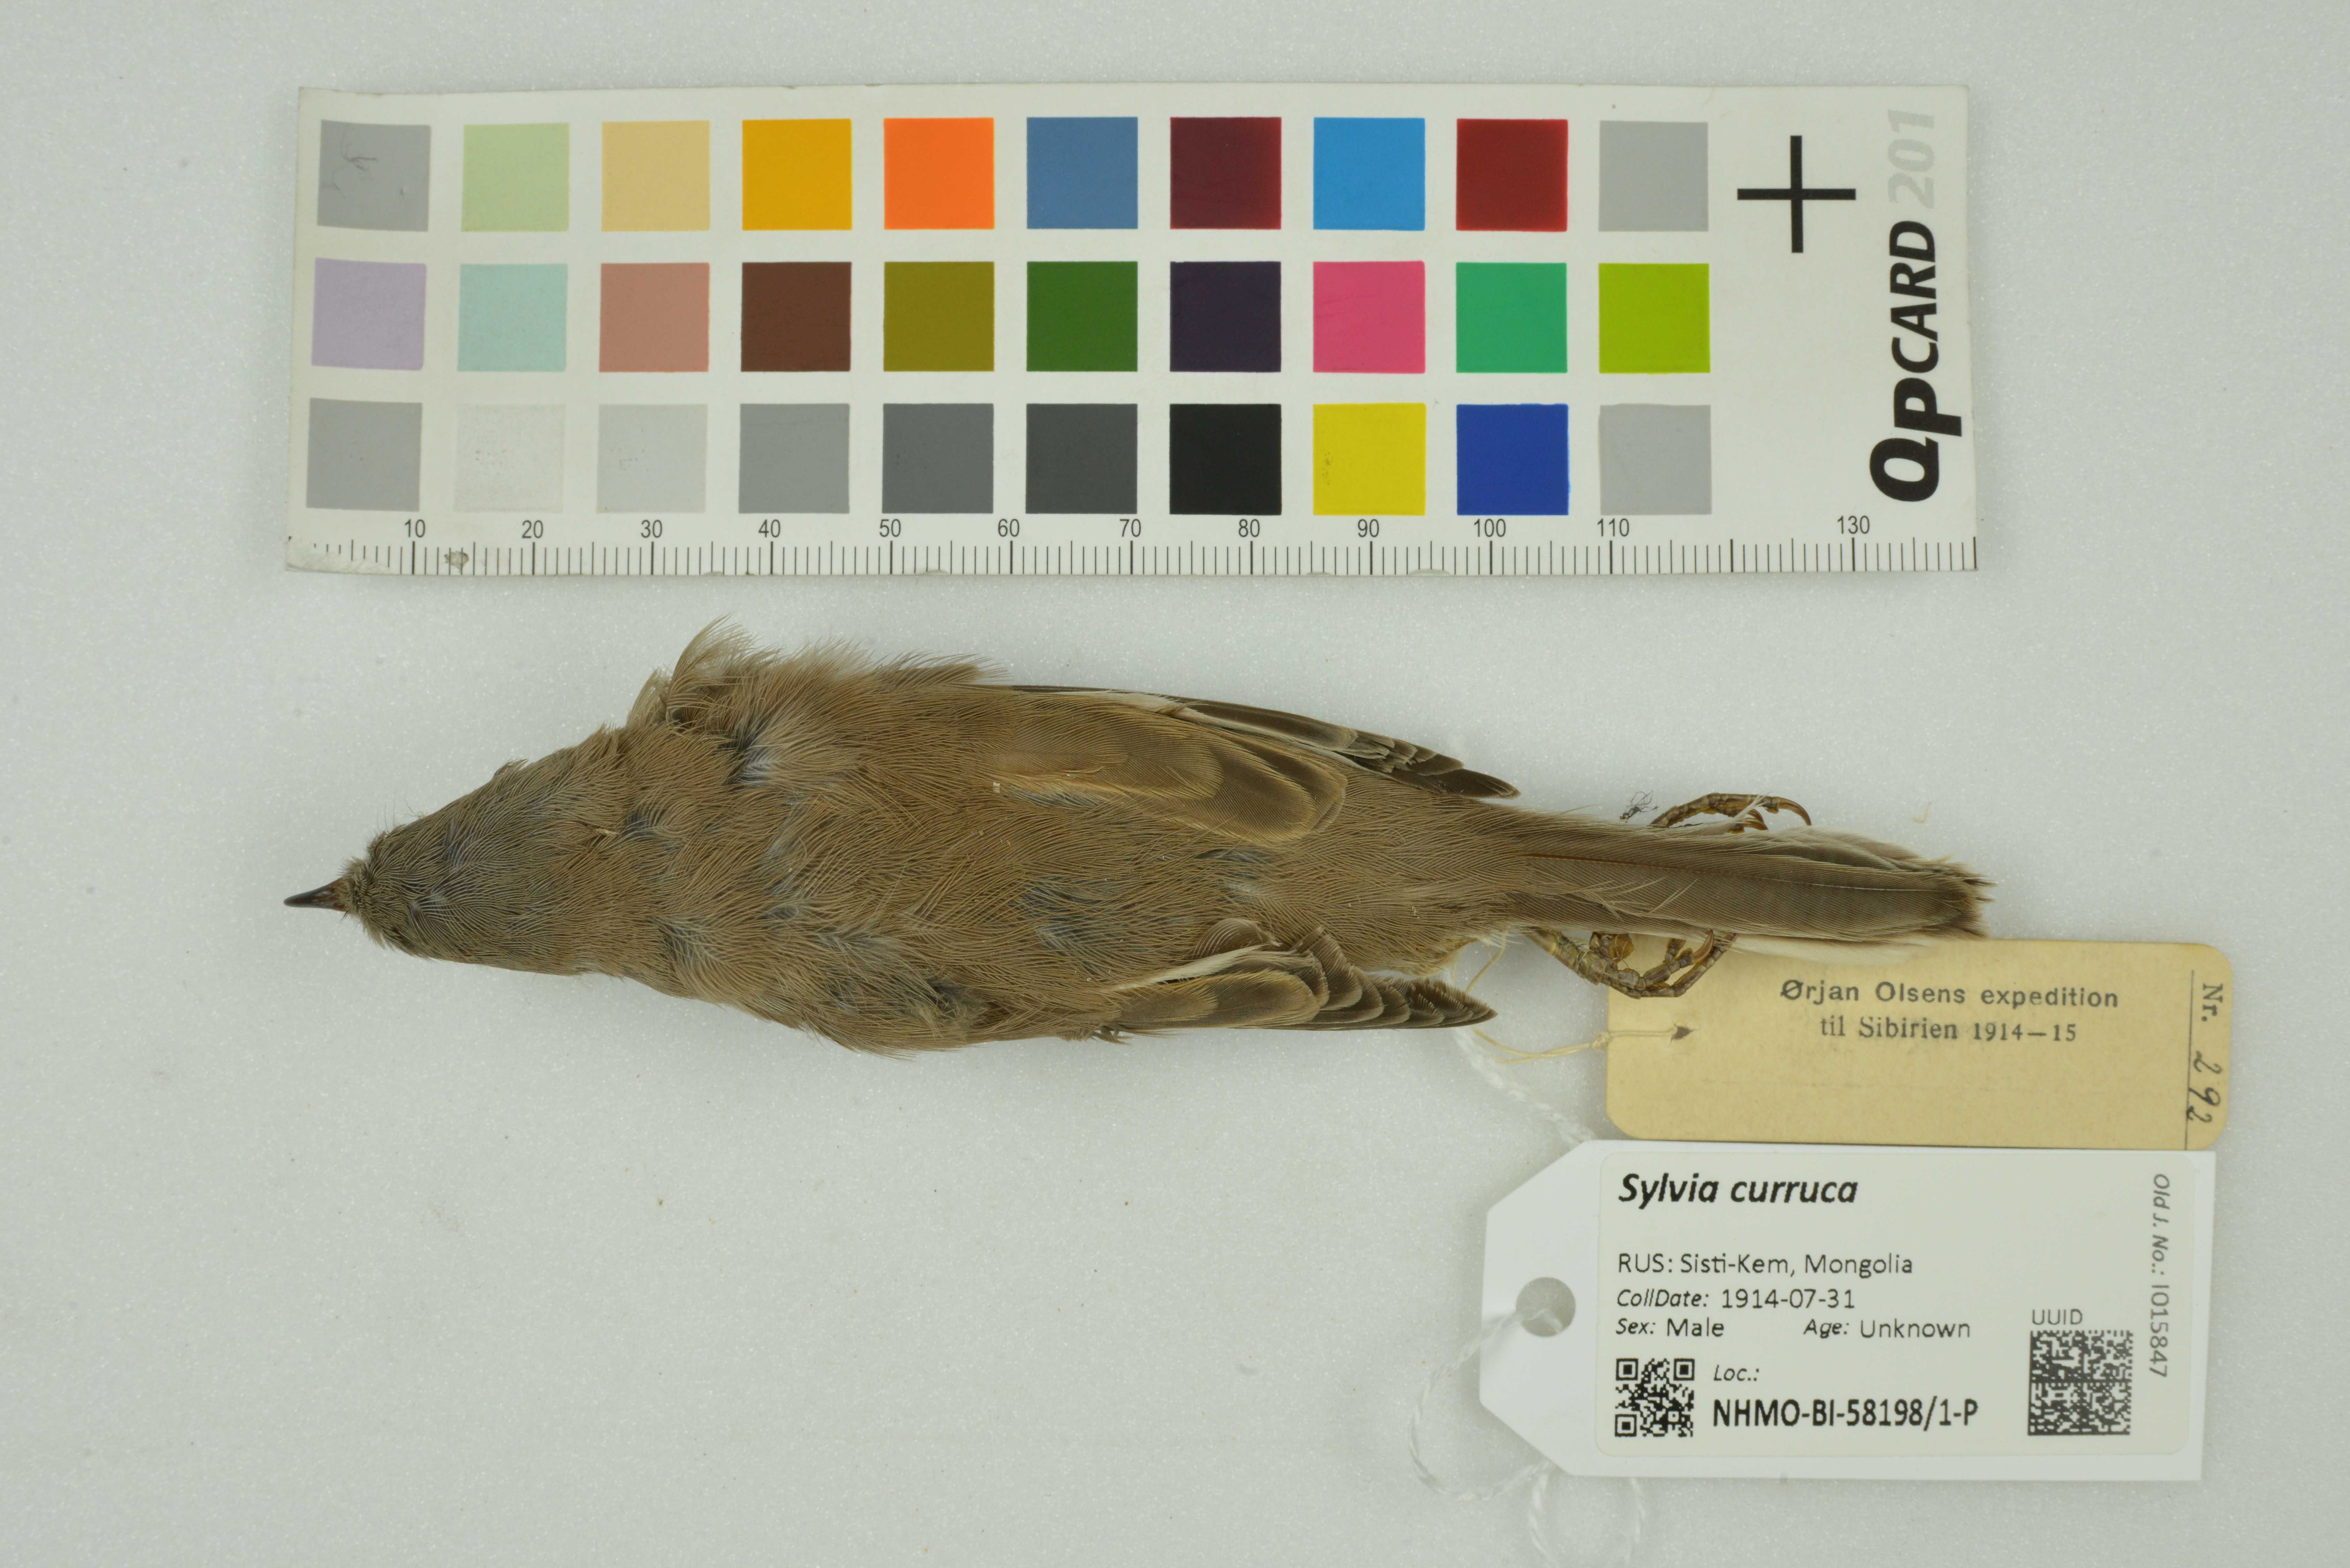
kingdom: Animalia
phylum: Chordata
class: Aves
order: Passeriformes
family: Sylviidae
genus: Sylvia
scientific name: Sylvia curruca
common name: Lesser whitethroat
